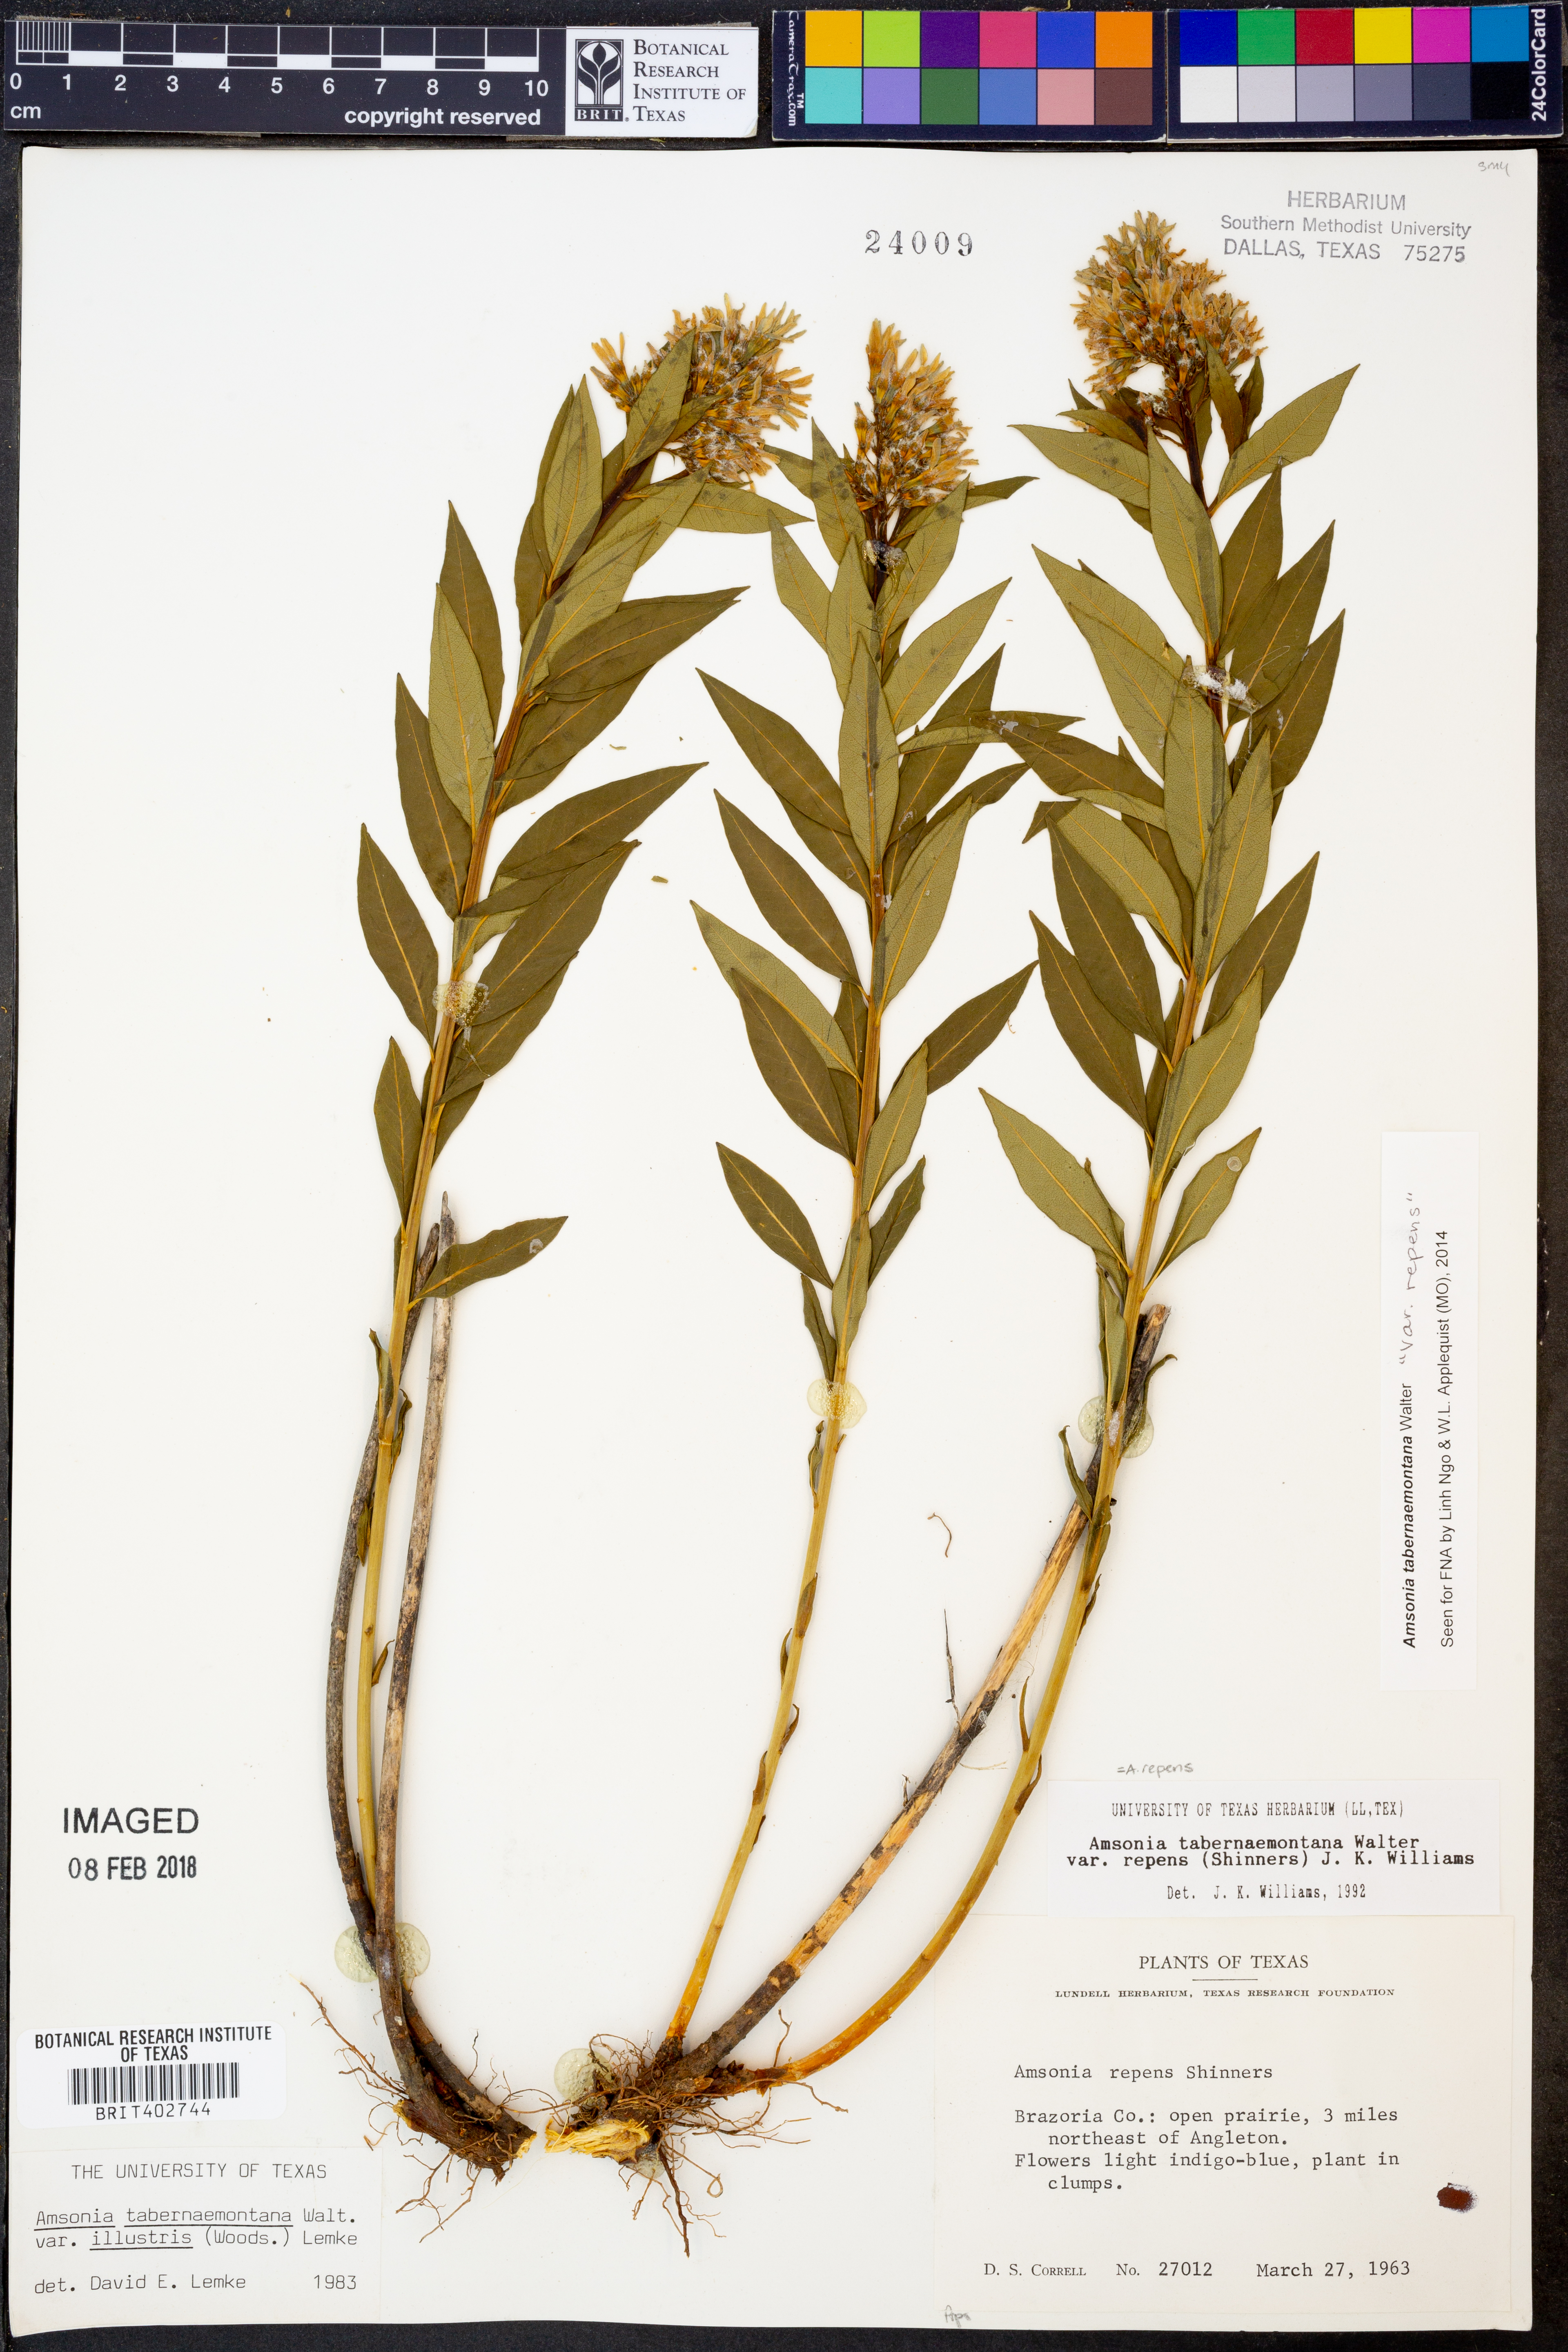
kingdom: Plantae
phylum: Tracheophyta
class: Magnoliopsida
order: Gentianales
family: Apocynaceae
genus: Amsonia
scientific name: Amsonia tabernaemontana
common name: Texas-star
